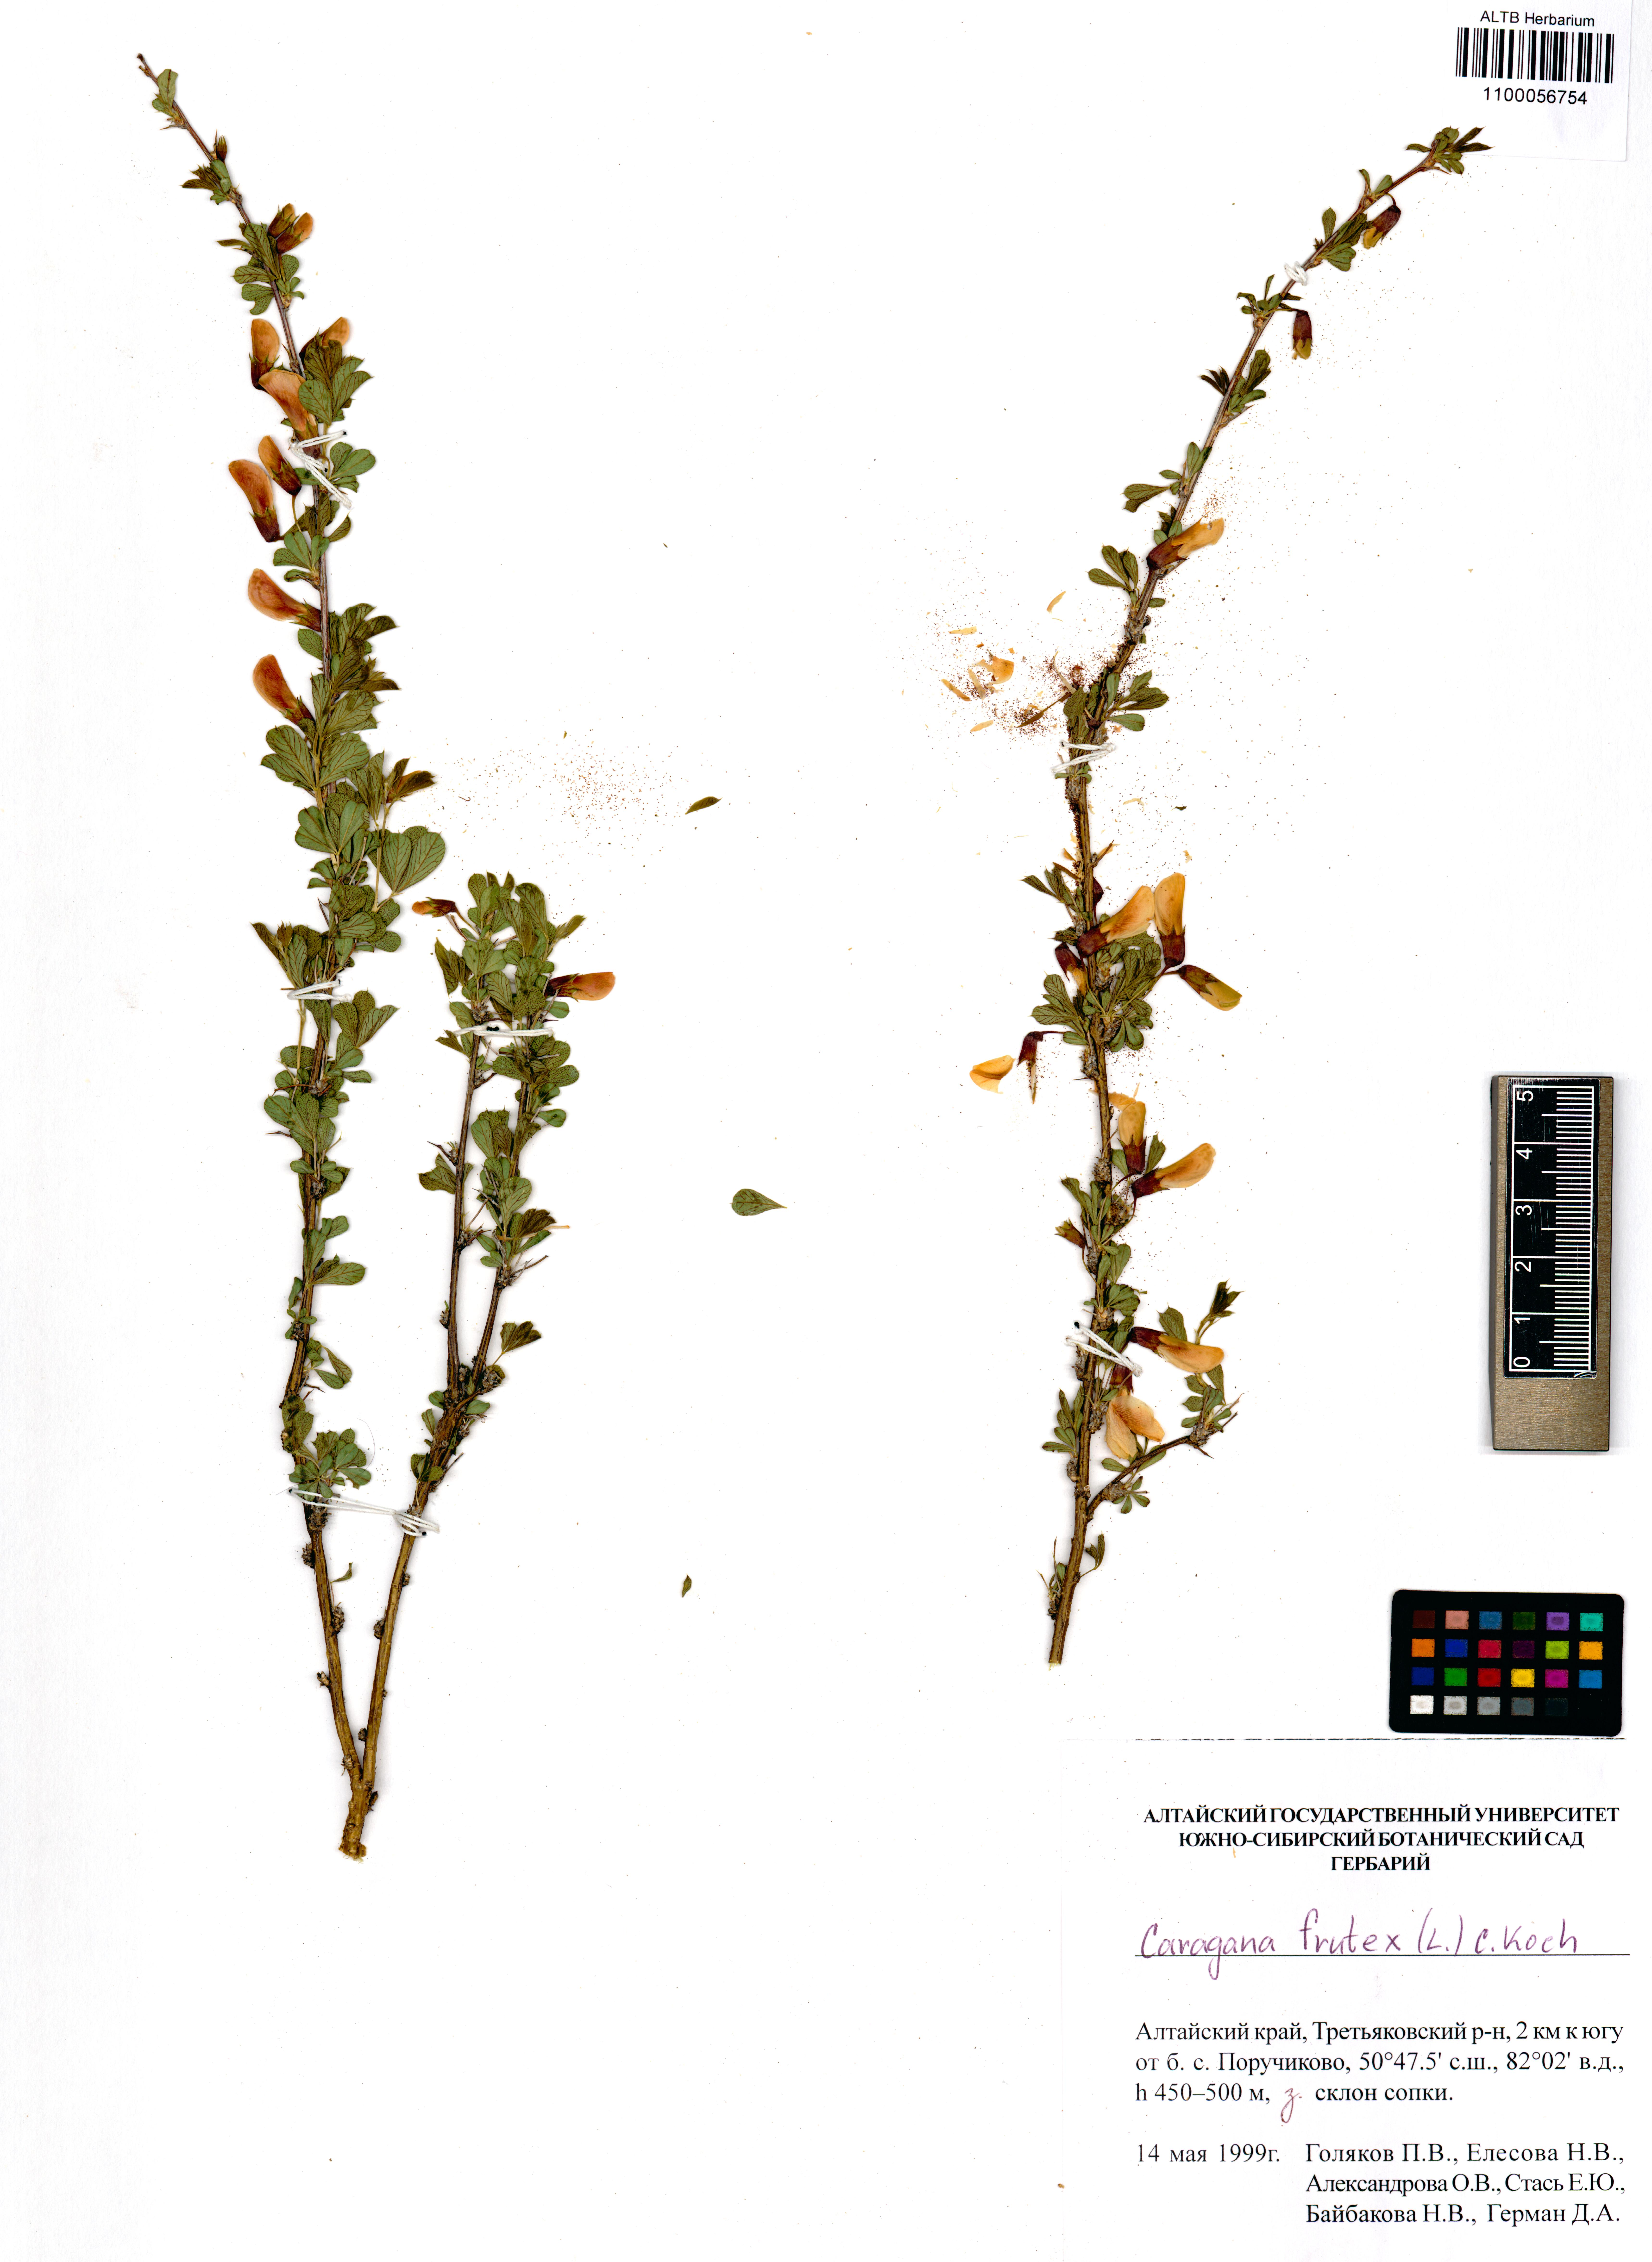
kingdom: Plantae
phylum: Tracheophyta
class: Magnoliopsida
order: Fabales
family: Fabaceae
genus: Caragana
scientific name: Caragana frutex
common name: Russian peashrub
